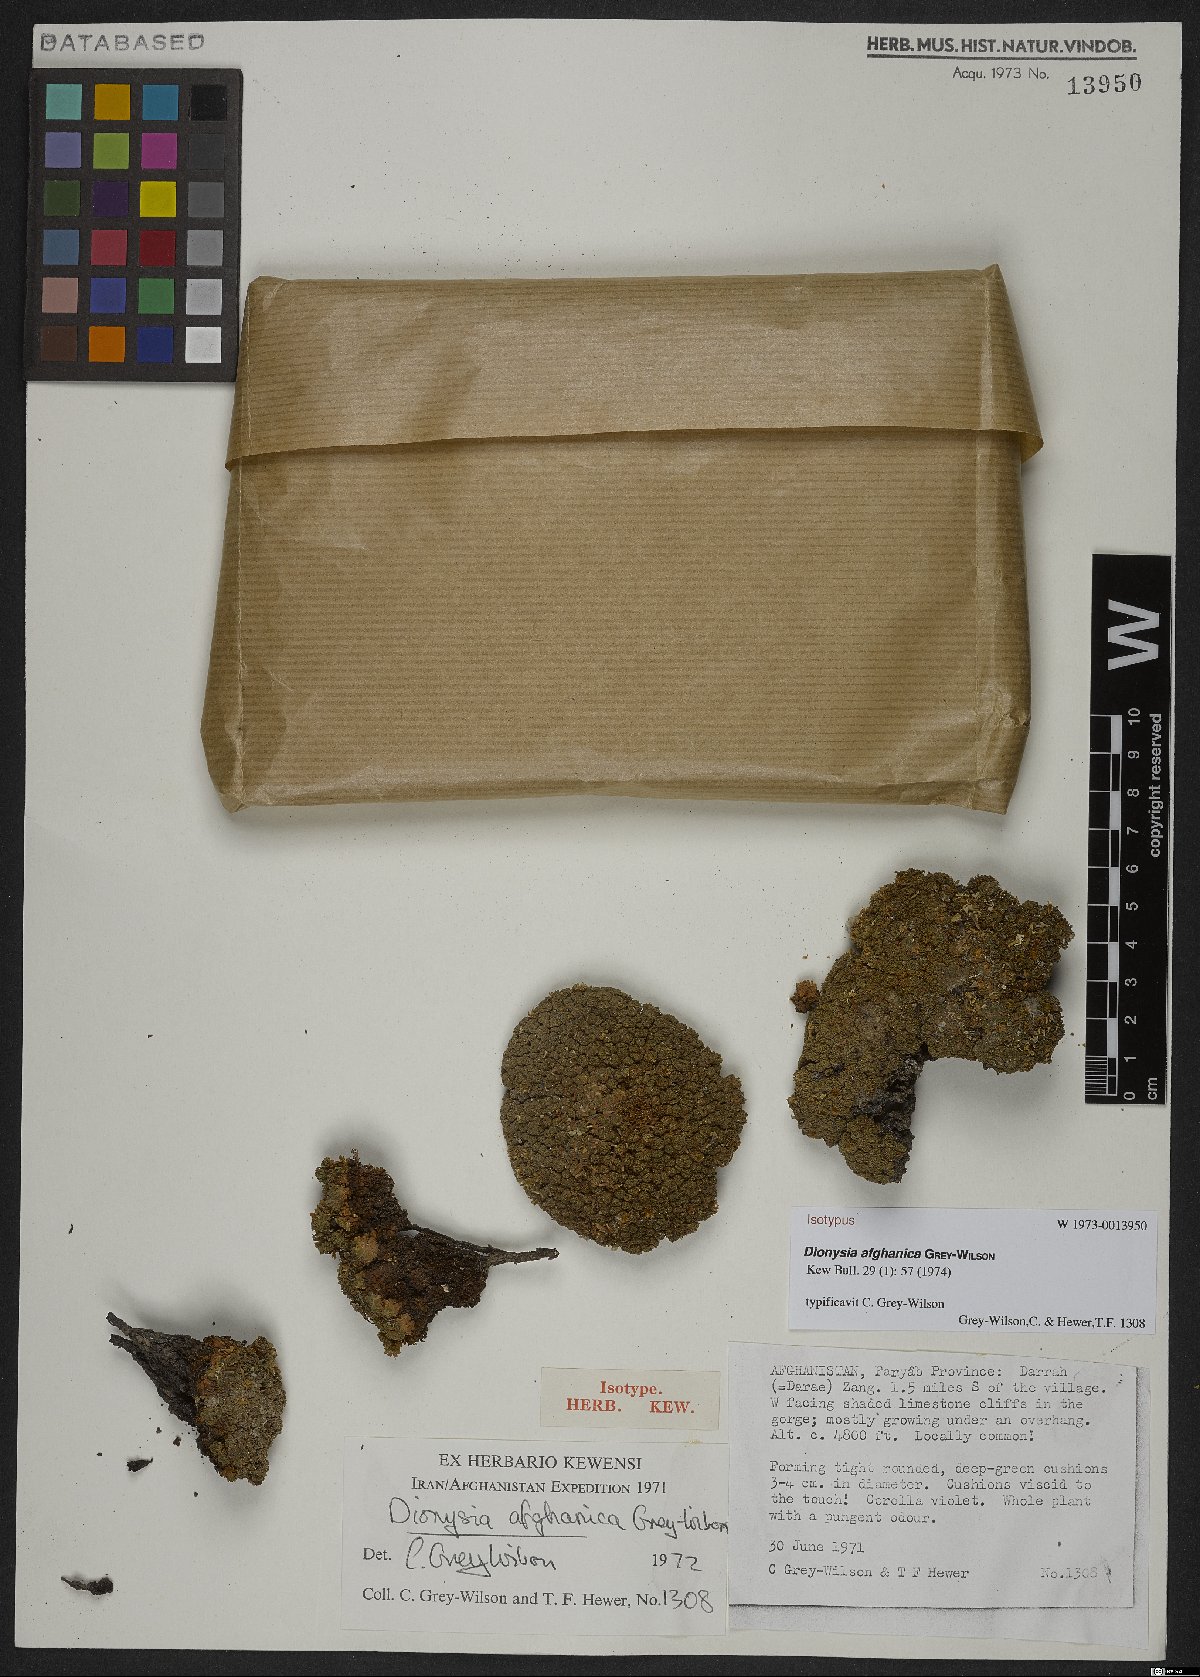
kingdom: Plantae
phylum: Tracheophyta
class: Magnoliopsida
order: Ericales
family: Primulaceae
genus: Dionysia
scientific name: Dionysia afghanica
